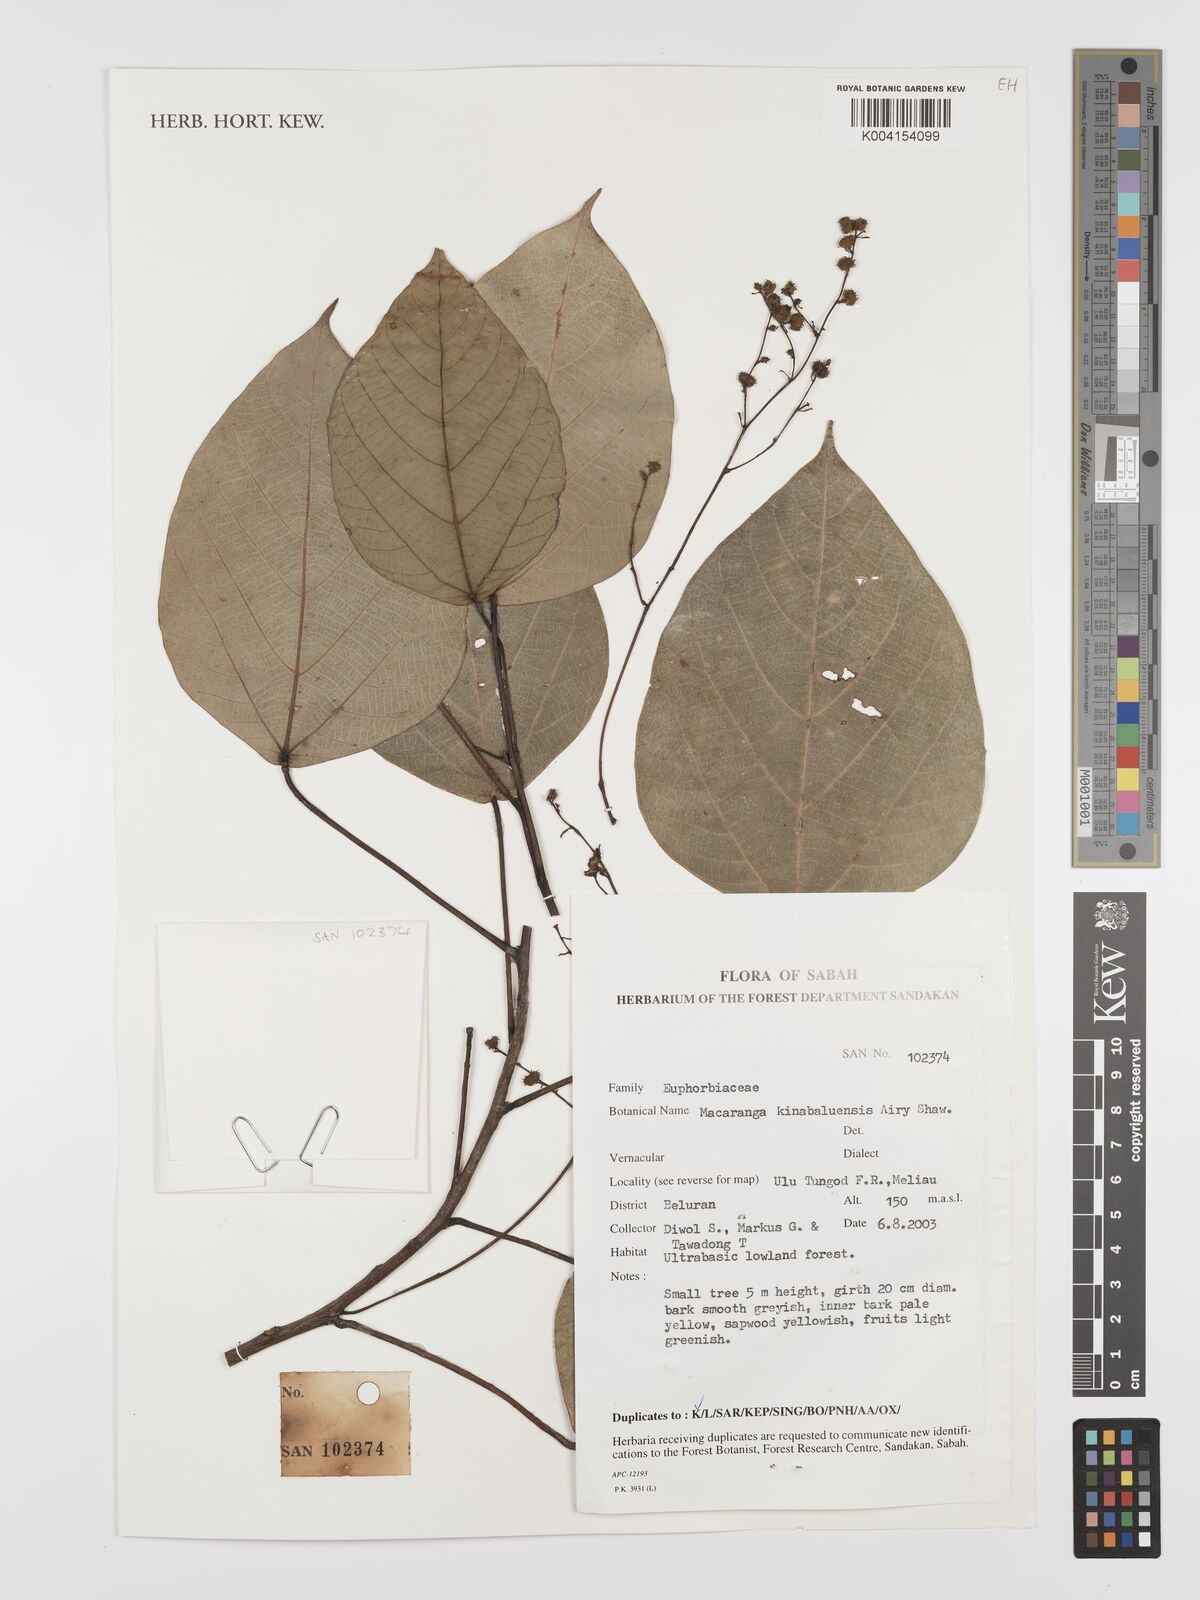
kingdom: Plantae
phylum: Tracheophyta
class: Magnoliopsida
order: Malpighiales
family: Euphorbiaceae
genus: Macaranga
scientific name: Macaranga kinabaluensis
